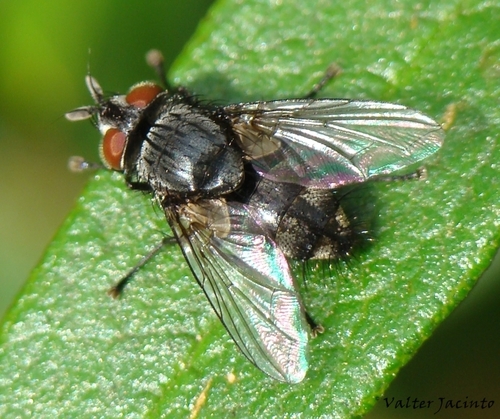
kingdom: Animalia
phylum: Arthropoda
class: Insecta
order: Diptera
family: Tachinidae
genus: Eumea
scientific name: Eumea linearicornis
